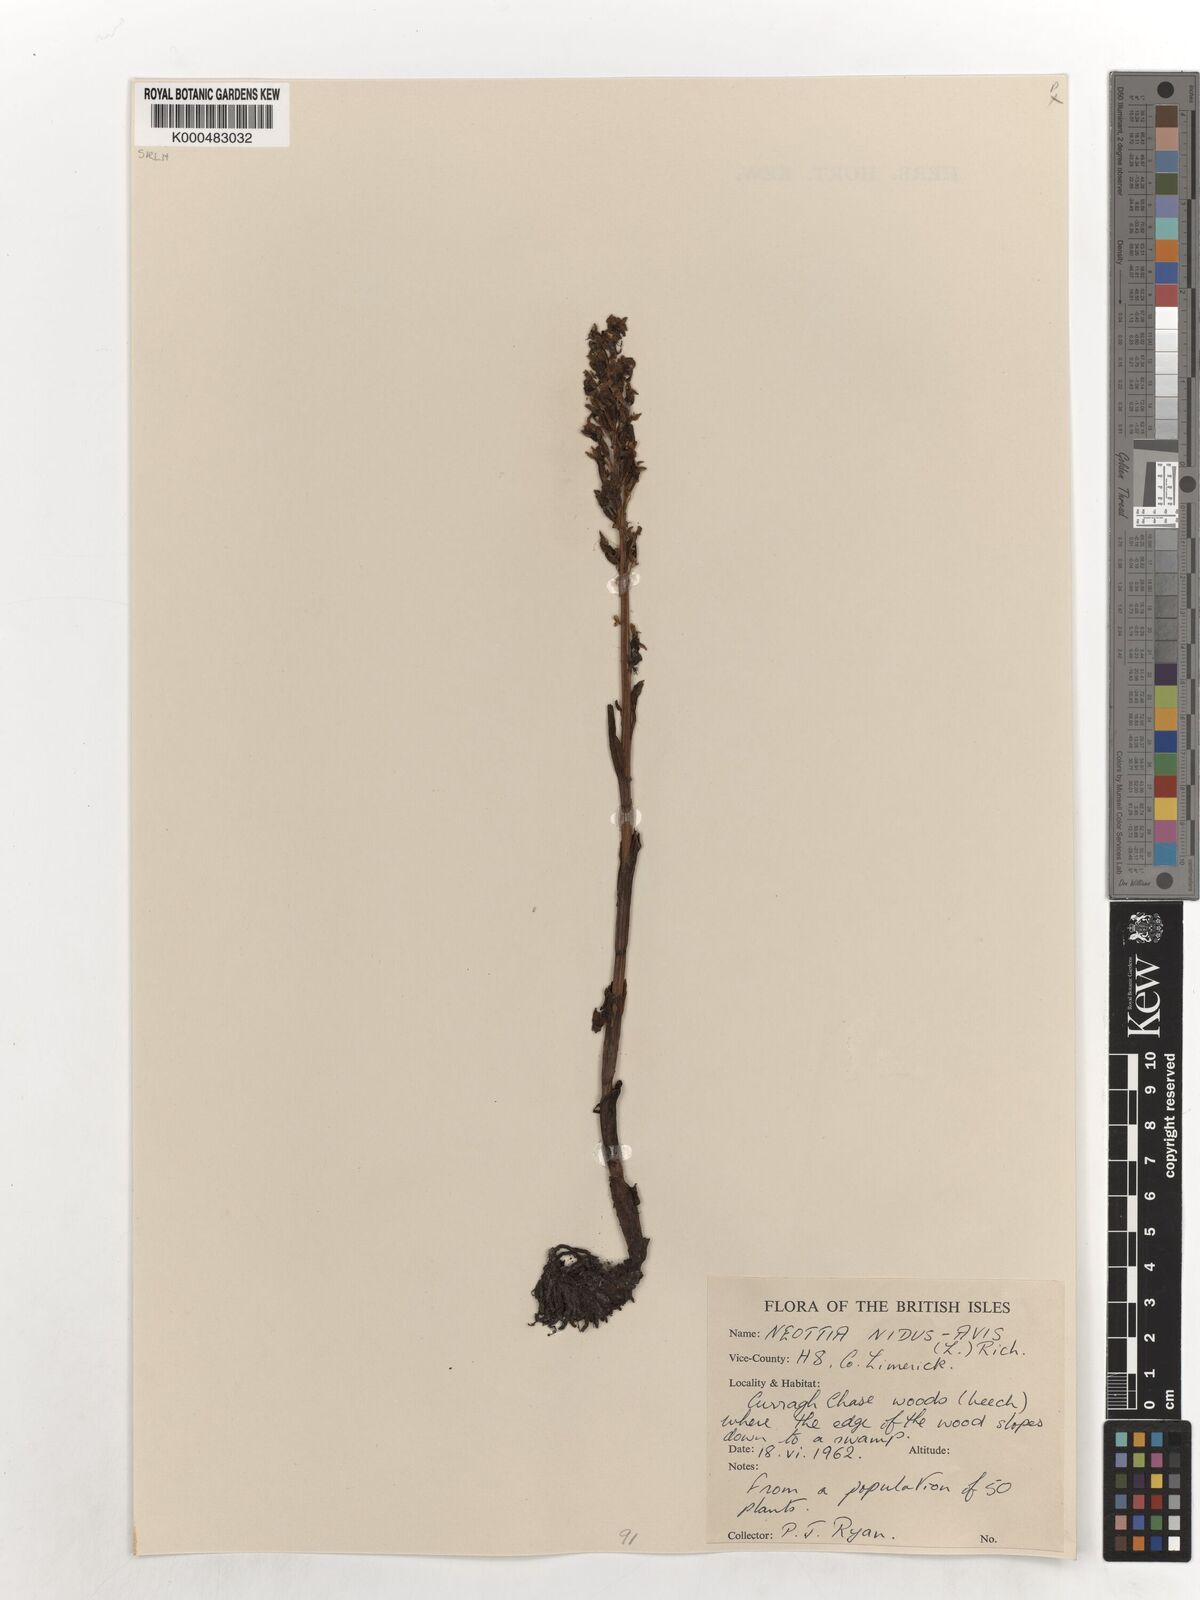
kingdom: Plantae
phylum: Tracheophyta
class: Liliopsida
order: Asparagales
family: Orchidaceae
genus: Neottia
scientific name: Neottia nidus-avis
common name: Bird's-nest orchid
